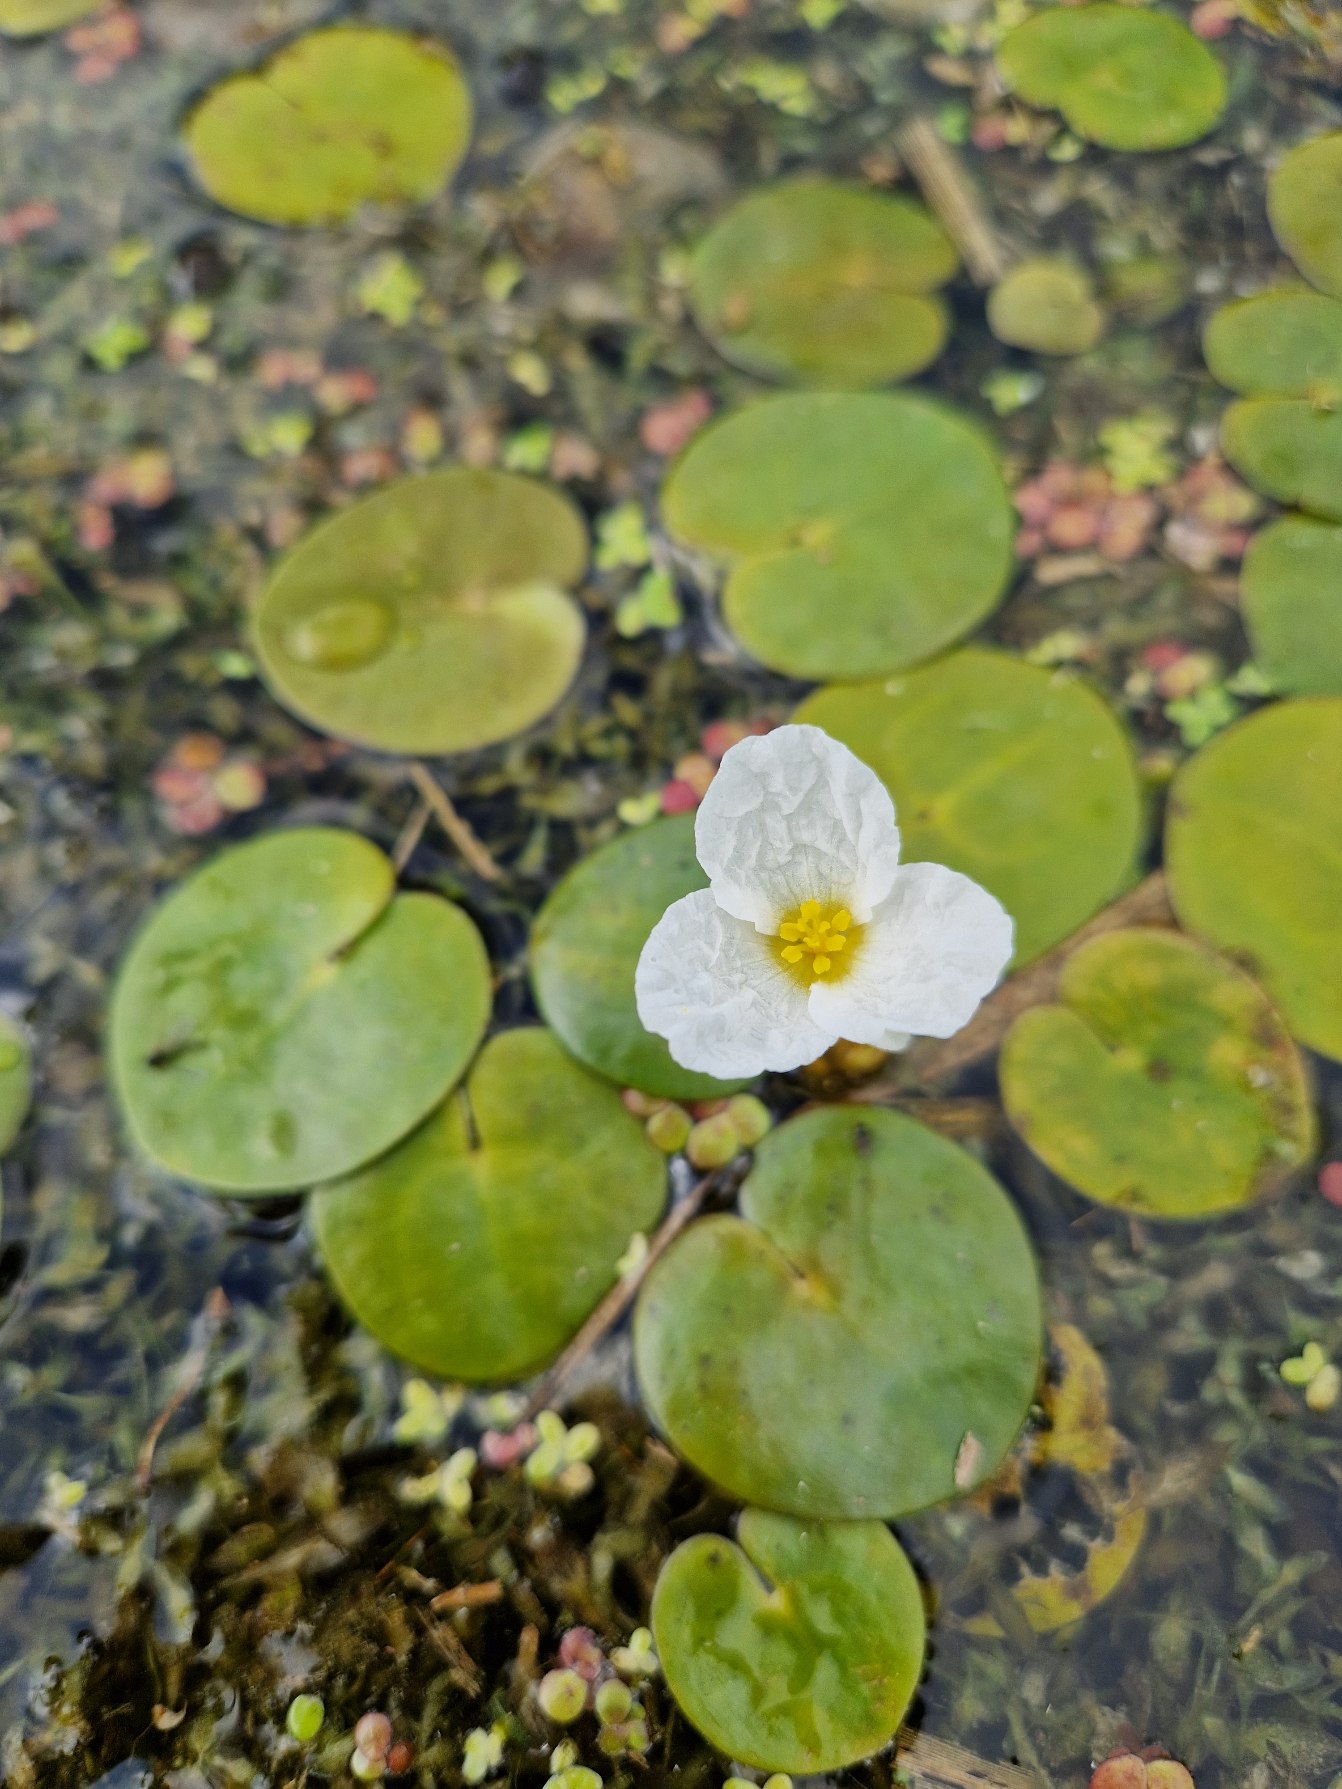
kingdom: Plantae
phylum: Tracheophyta
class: Liliopsida
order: Alismatales
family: Hydrocharitaceae
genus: Hydrocharis
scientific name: Hydrocharis morsus-ranae
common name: Frøbid
